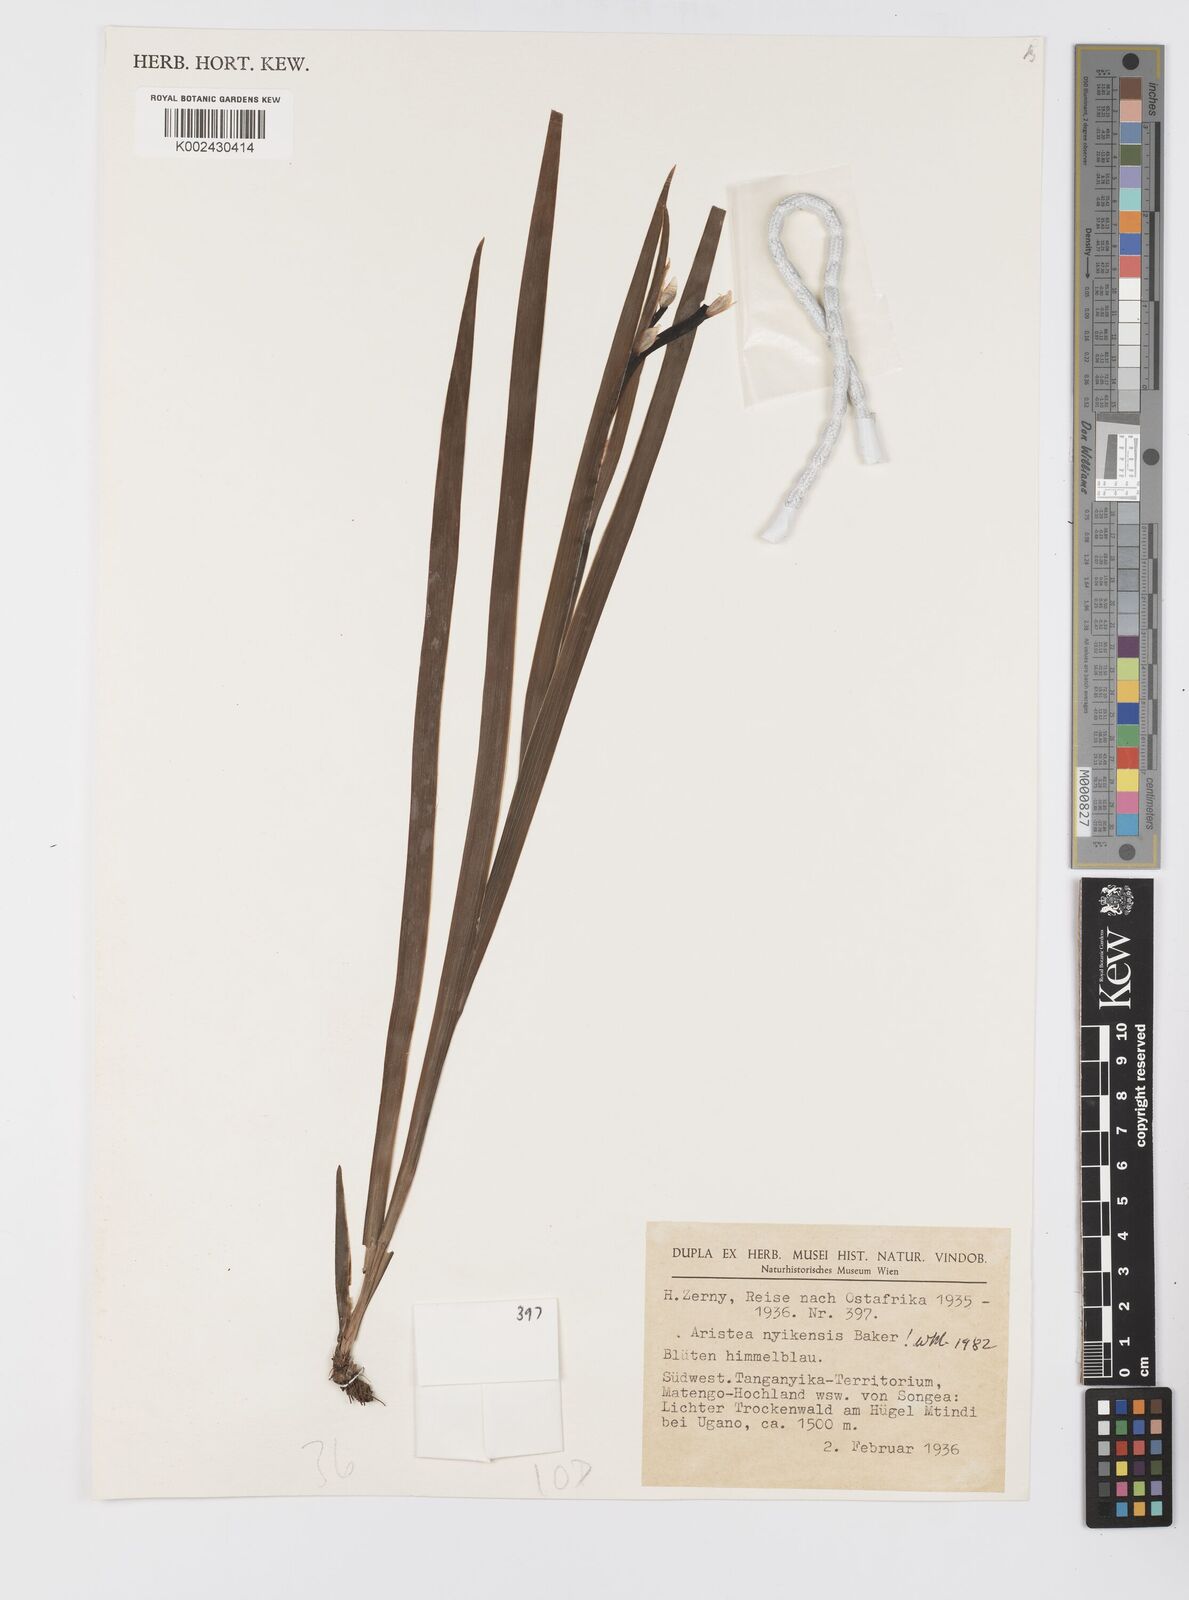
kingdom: Plantae
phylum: Tracheophyta
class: Liliopsida
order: Asparagales
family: Iridaceae
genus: Aristea
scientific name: Aristea nyikensis
